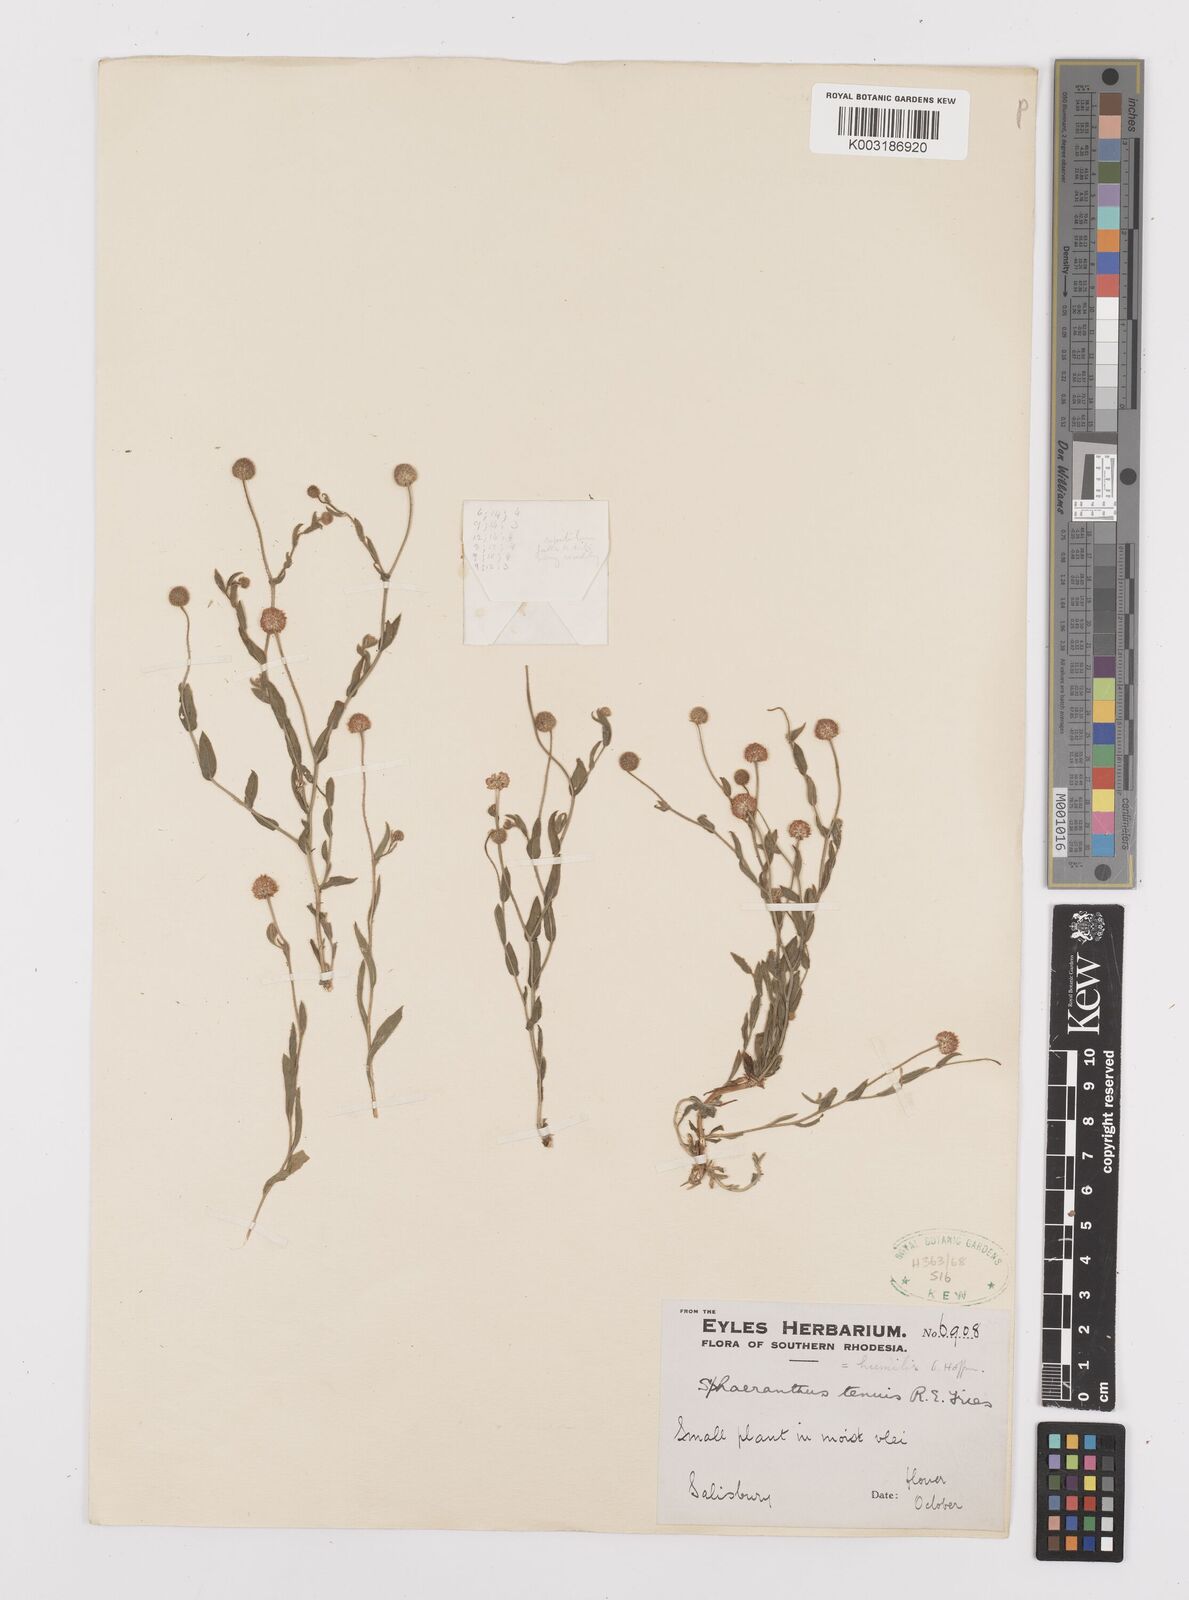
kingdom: Plantae
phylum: Tracheophyta
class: Magnoliopsida
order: Asterales
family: Asteraceae
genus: Sphaeranthus
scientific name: Sphaeranthus flexuosus
